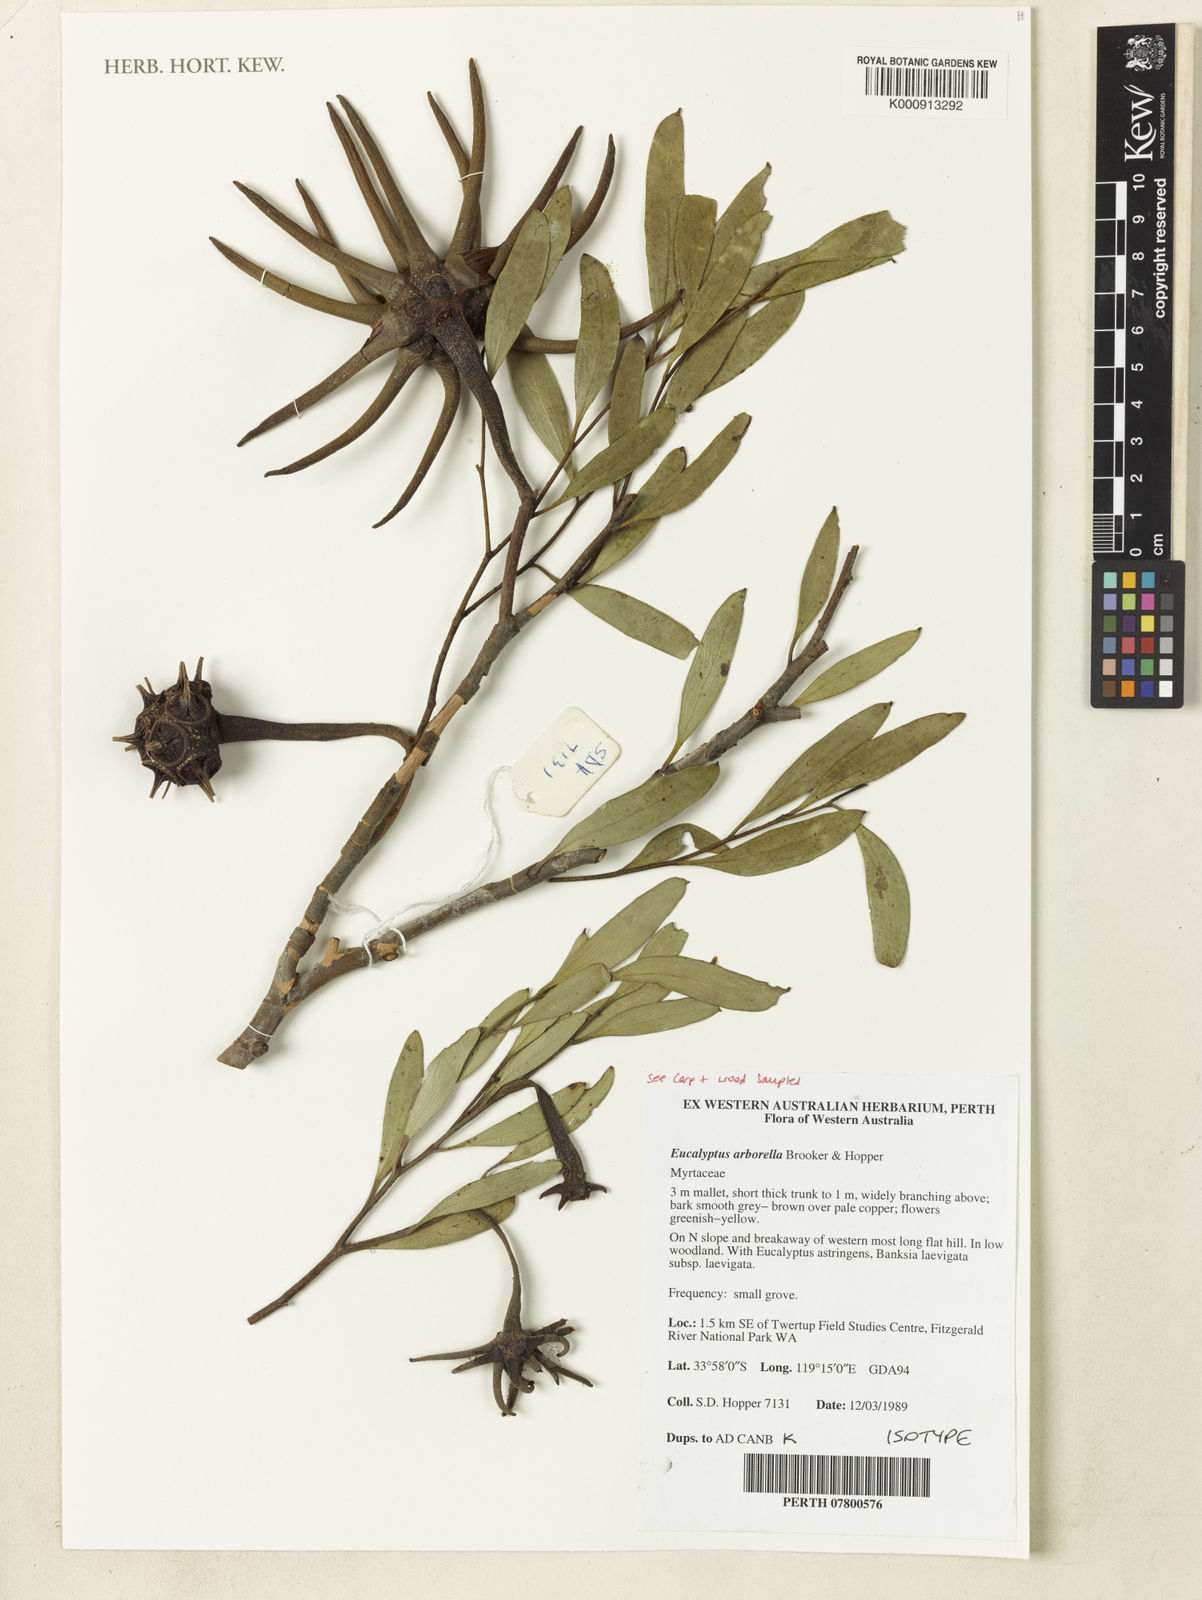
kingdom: Plantae
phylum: Tracheophyta
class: Magnoliopsida
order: Myrtales
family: Myrtaceae
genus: Eucalyptus
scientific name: Eucalyptus arborella
